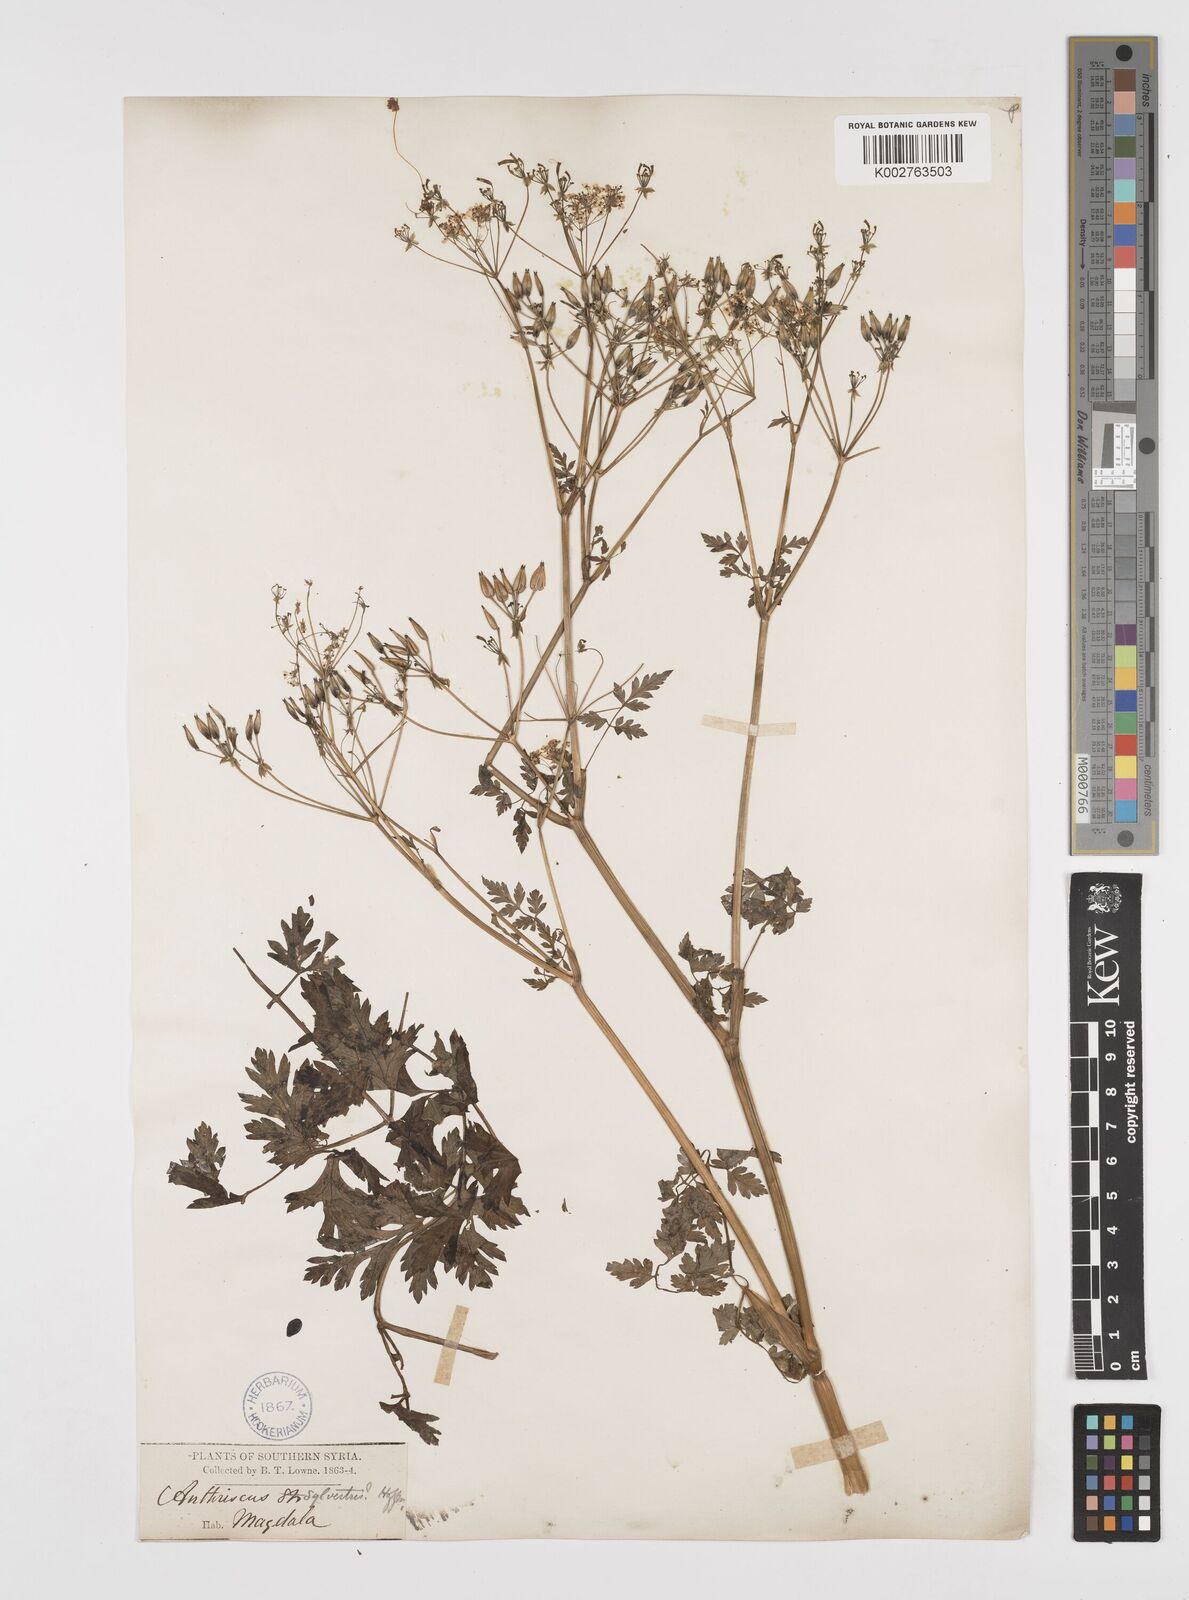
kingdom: Plantae
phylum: Tracheophyta
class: Magnoliopsida
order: Apiales
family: Apiaceae
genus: Anthriscus
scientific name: Anthriscus lamprocarpa
